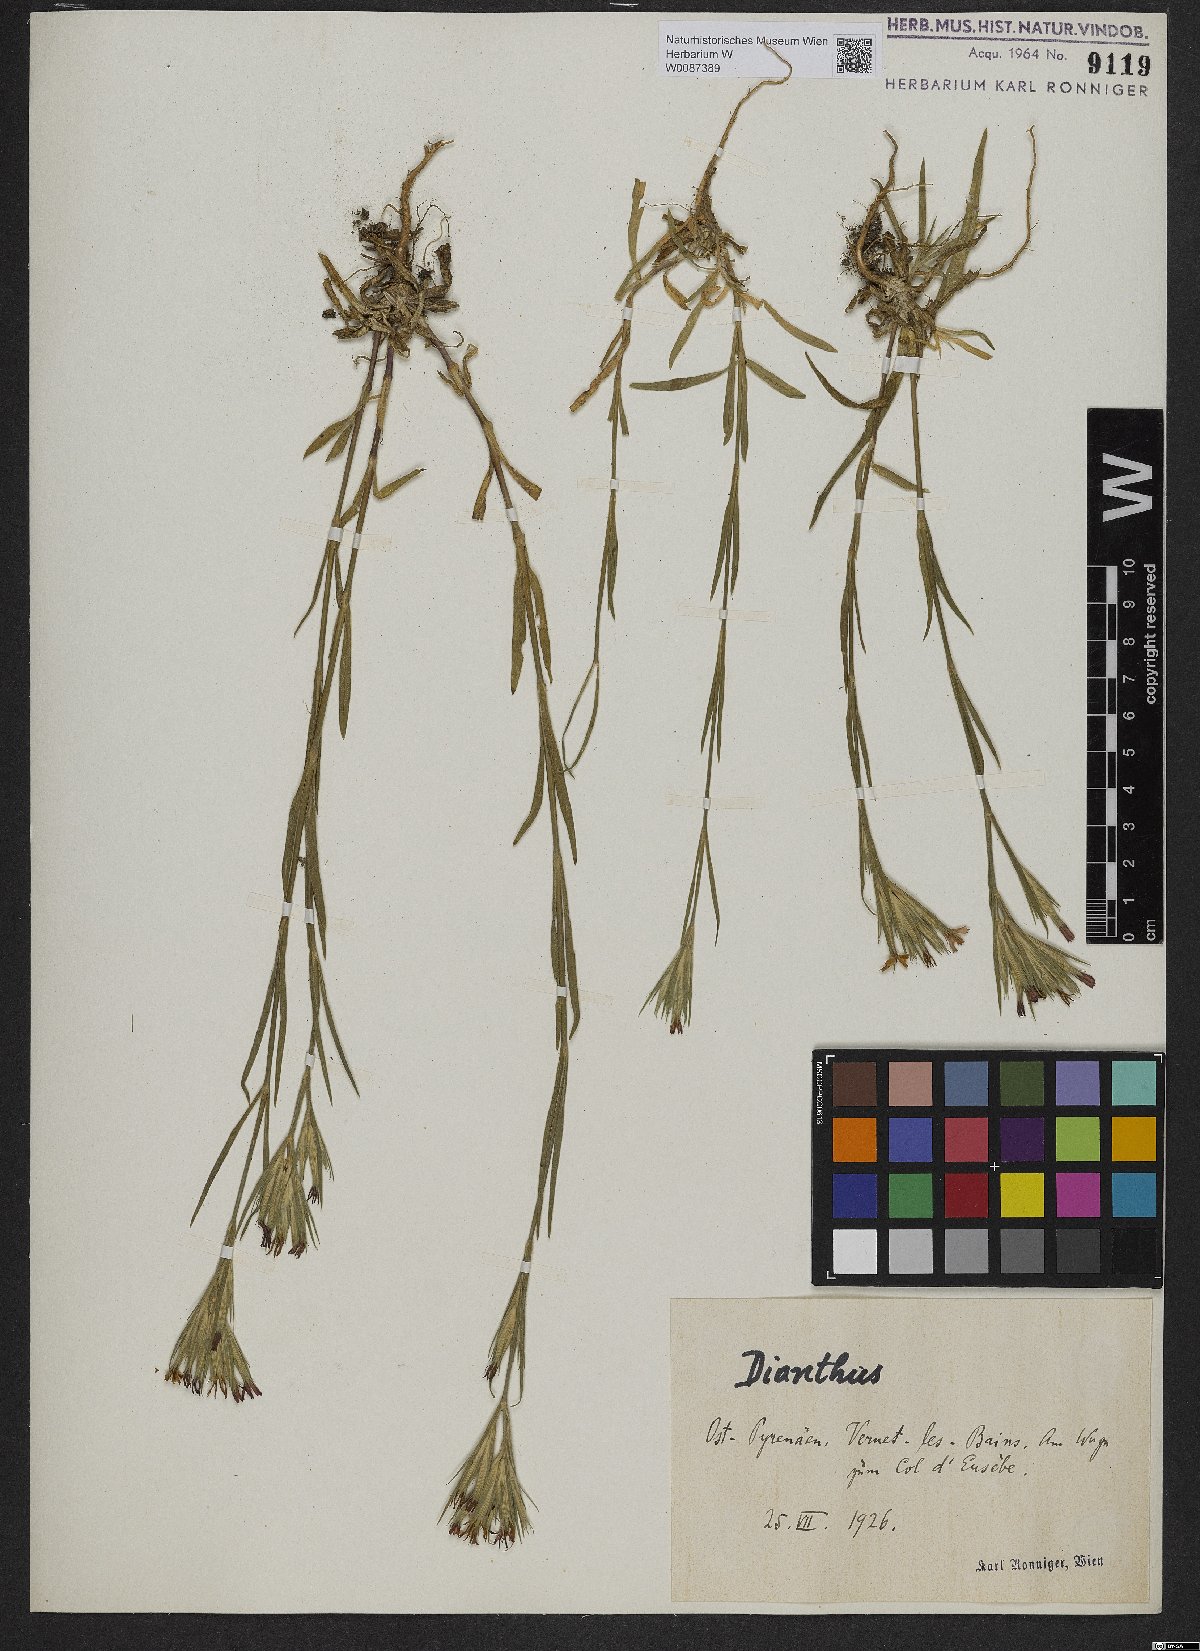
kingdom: Plantae
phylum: Tracheophyta
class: Magnoliopsida
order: Caryophyllales
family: Caryophyllaceae
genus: Dianthus
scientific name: Dianthus armeria
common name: Deptford pink
